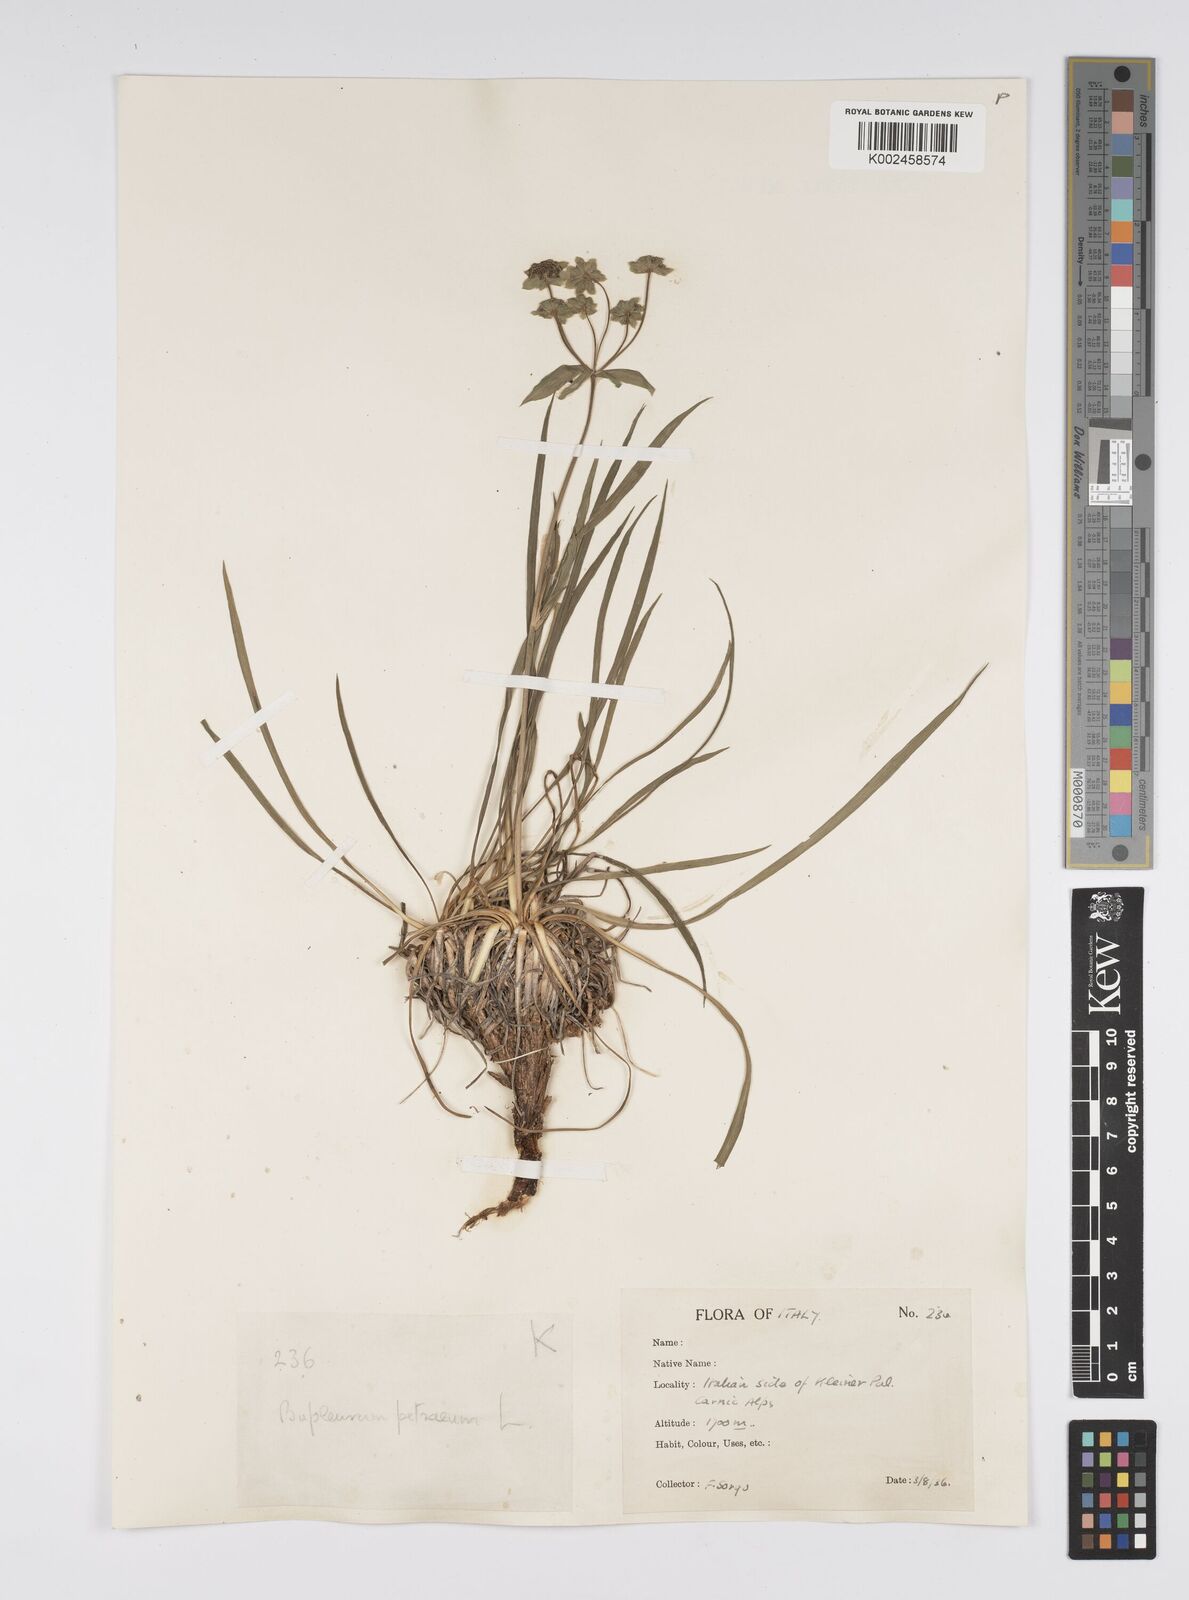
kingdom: Plantae
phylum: Tracheophyta
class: Magnoliopsida
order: Apiales
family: Apiaceae
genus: Bupleurum
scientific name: Bupleurum petraeum
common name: Rock hare's-ear
